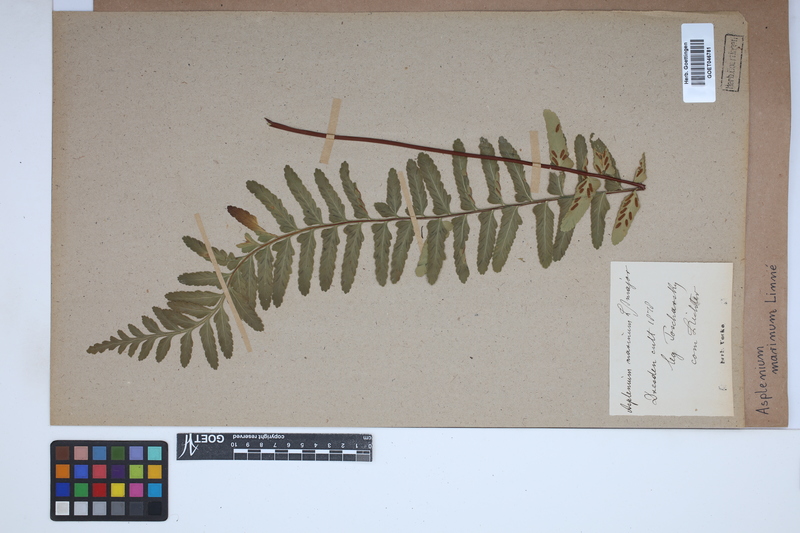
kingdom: Plantae
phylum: Tracheophyta
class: Polypodiopsida
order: Polypodiales
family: Aspleniaceae
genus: Asplenium
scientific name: Asplenium marinum
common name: Sea spleenwort
